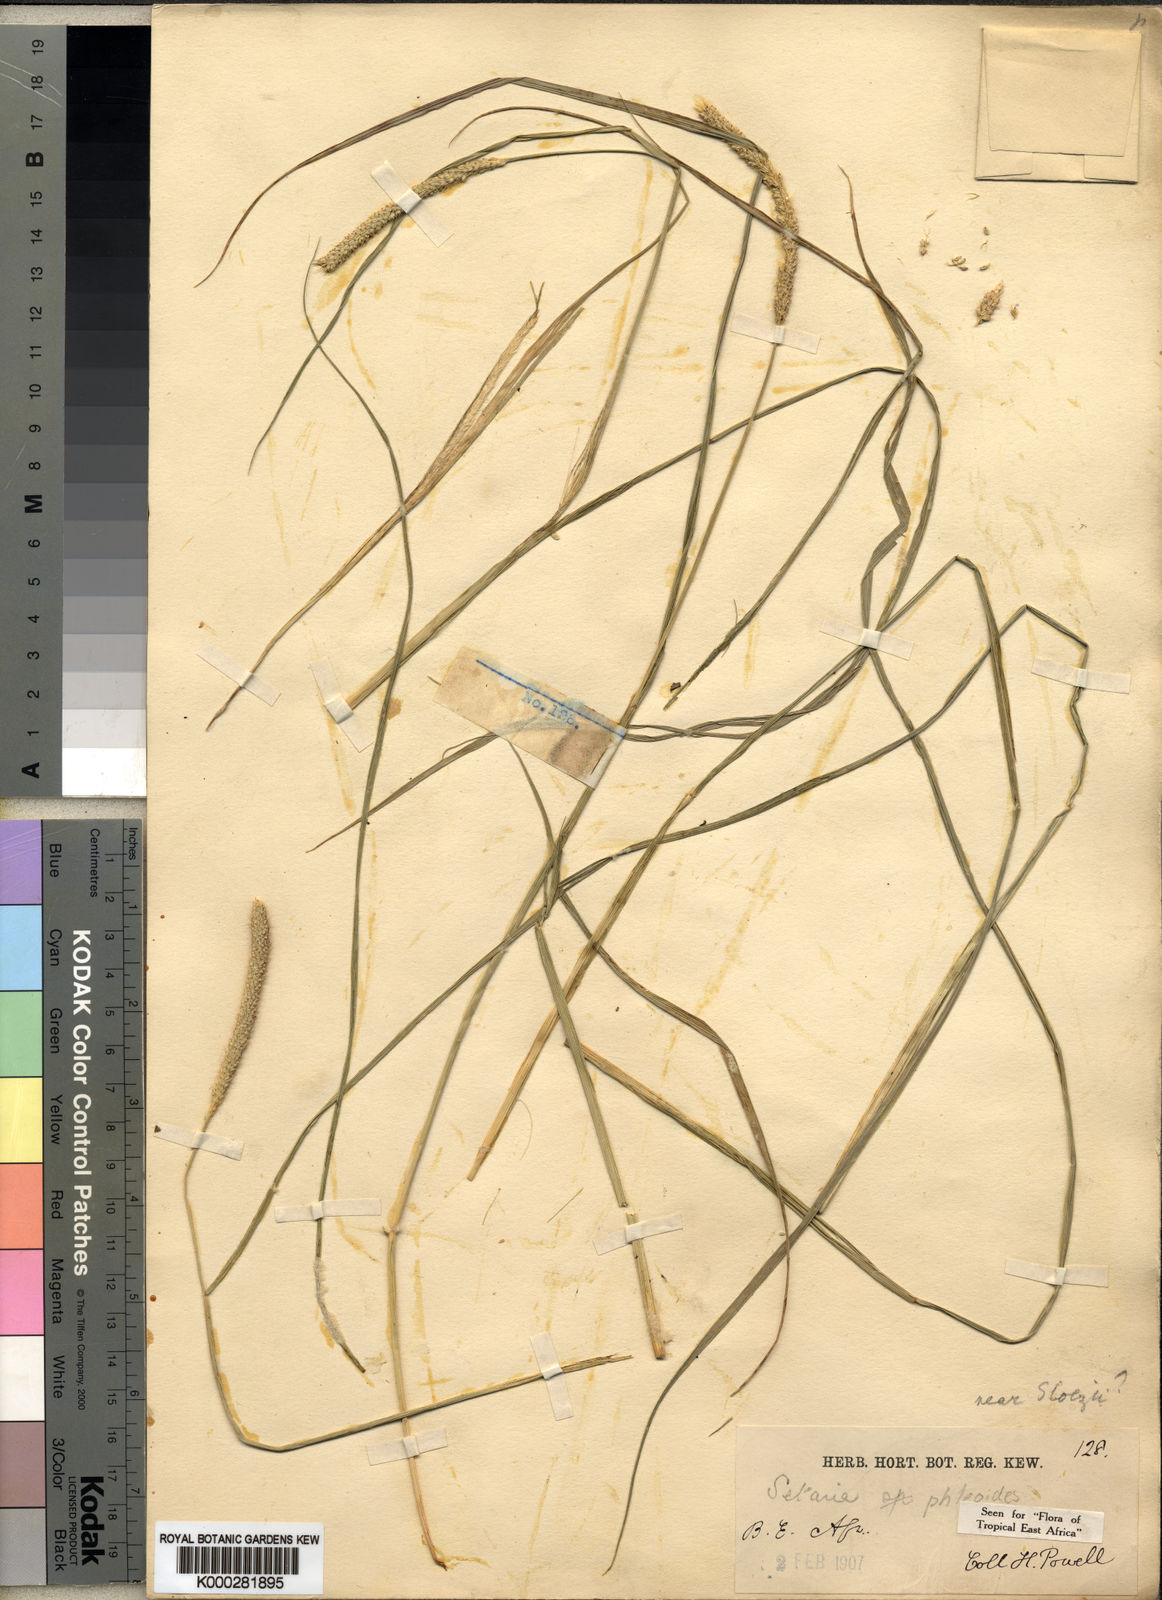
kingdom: Plantae
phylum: Tracheophyta
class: Liliopsida
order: Poales
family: Poaceae
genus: Setaria
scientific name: Setaria incrassata
